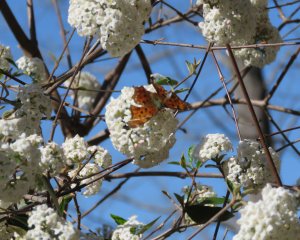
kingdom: Animalia
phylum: Arthropoda
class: Insecta
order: Lepidoptera
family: Nymphalidae
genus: Polygonia
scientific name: Polygonia comma
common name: Eastern Comma
